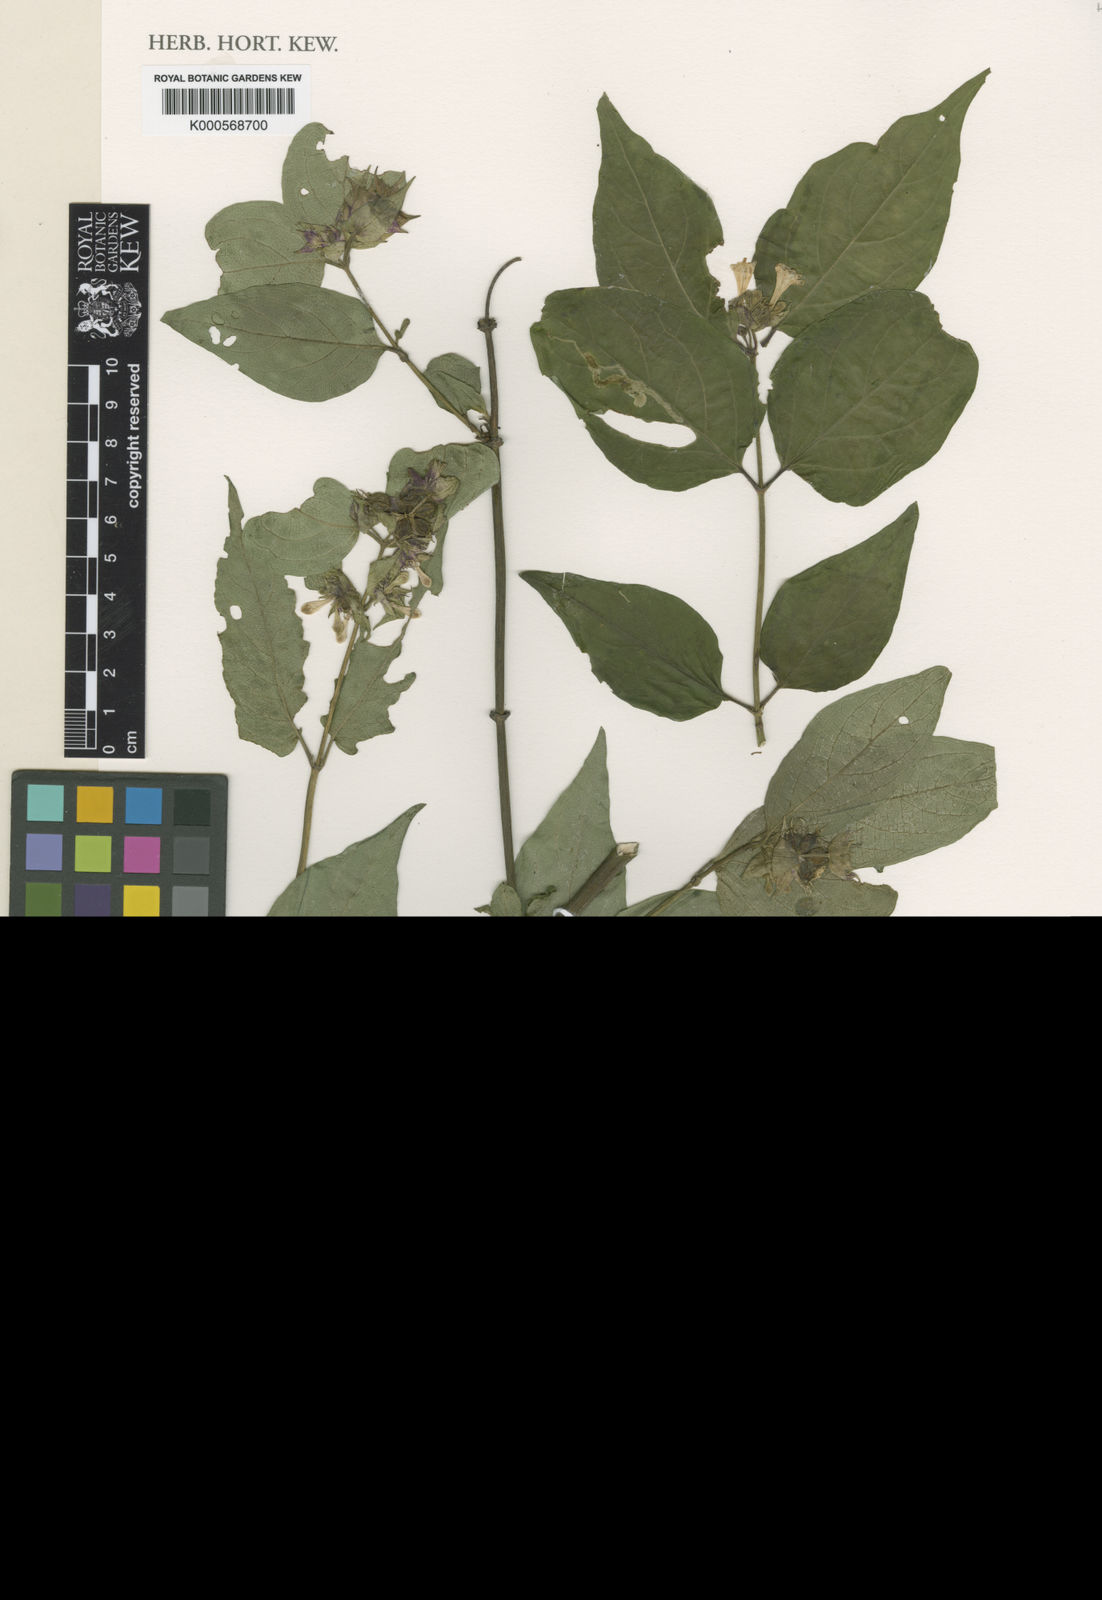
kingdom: Plantae
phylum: Tracheophyta
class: Magnoliopsida
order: Dipsacales
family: Caprifoliaceae
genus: Leycesteria
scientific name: Leycesteria formosa
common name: Himalayan honeysuckle
